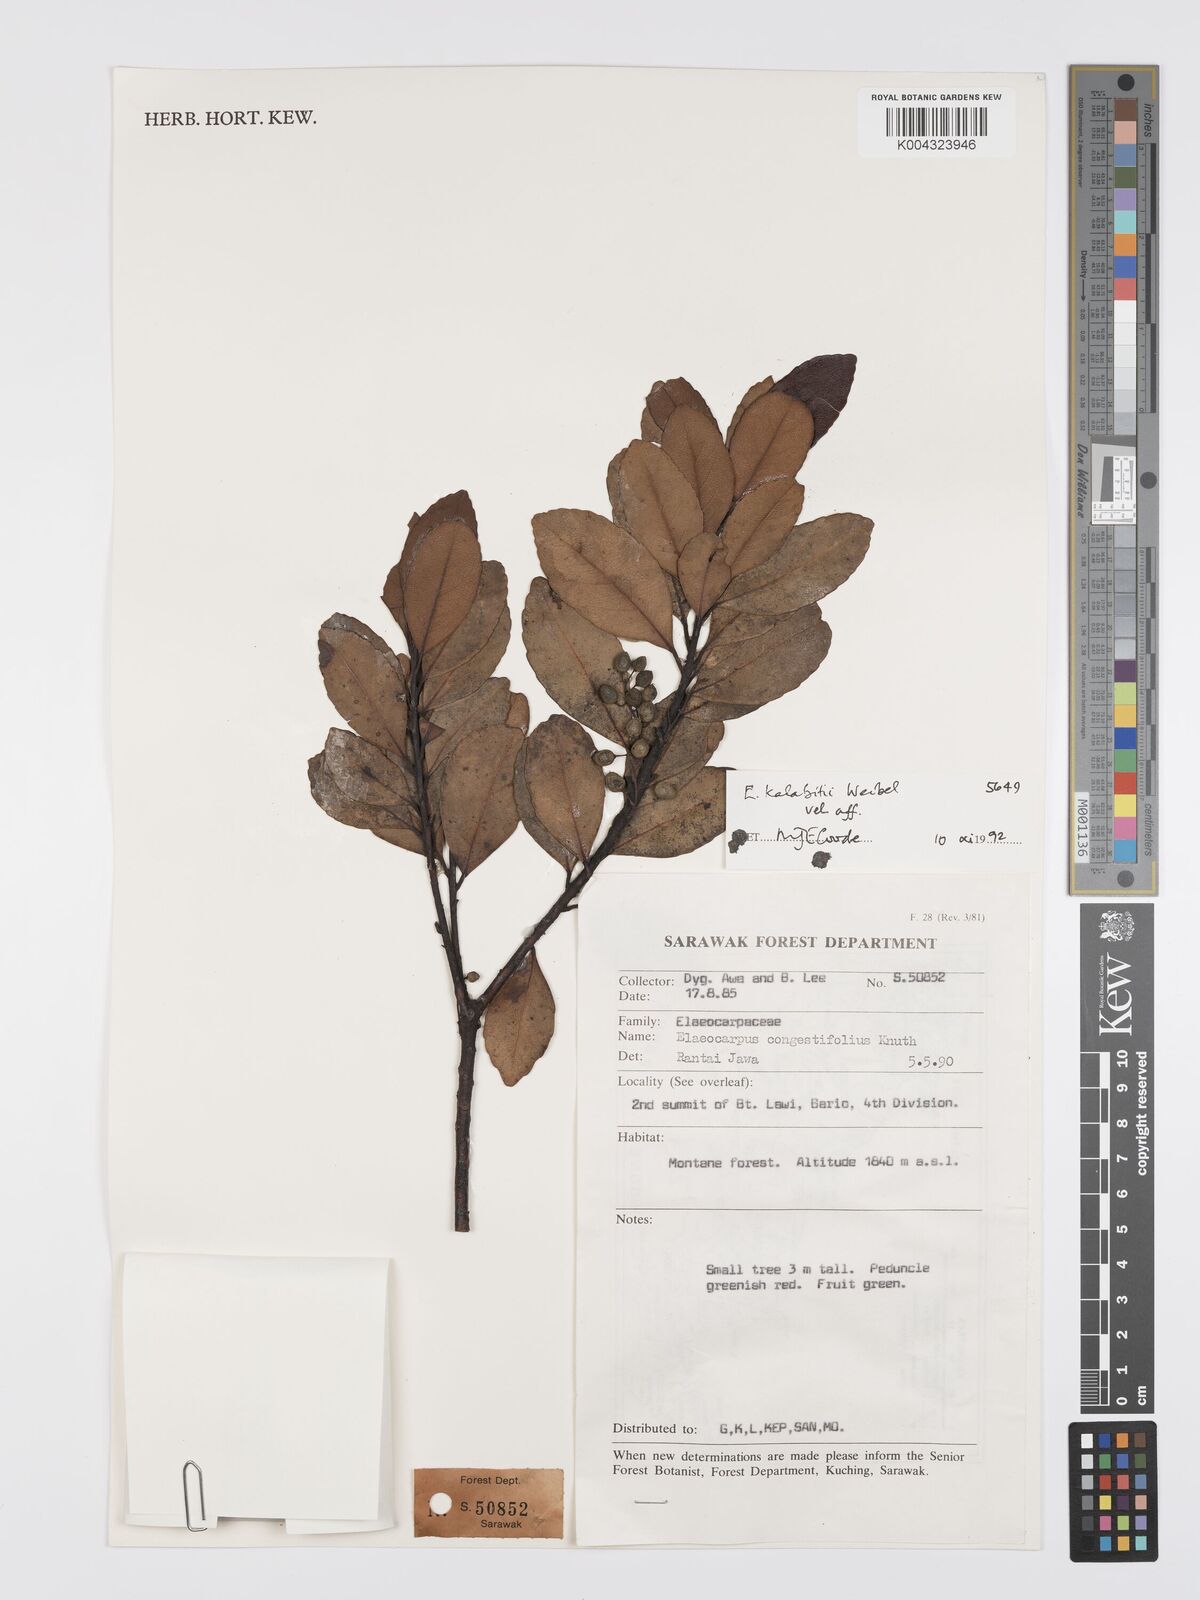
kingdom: Plantae
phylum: Tracheophyta
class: Magnoliopsida
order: Oxalidales
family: Elaeocarpaceae
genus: Elaeocarpus
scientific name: Elaeocarpus kalabitii
